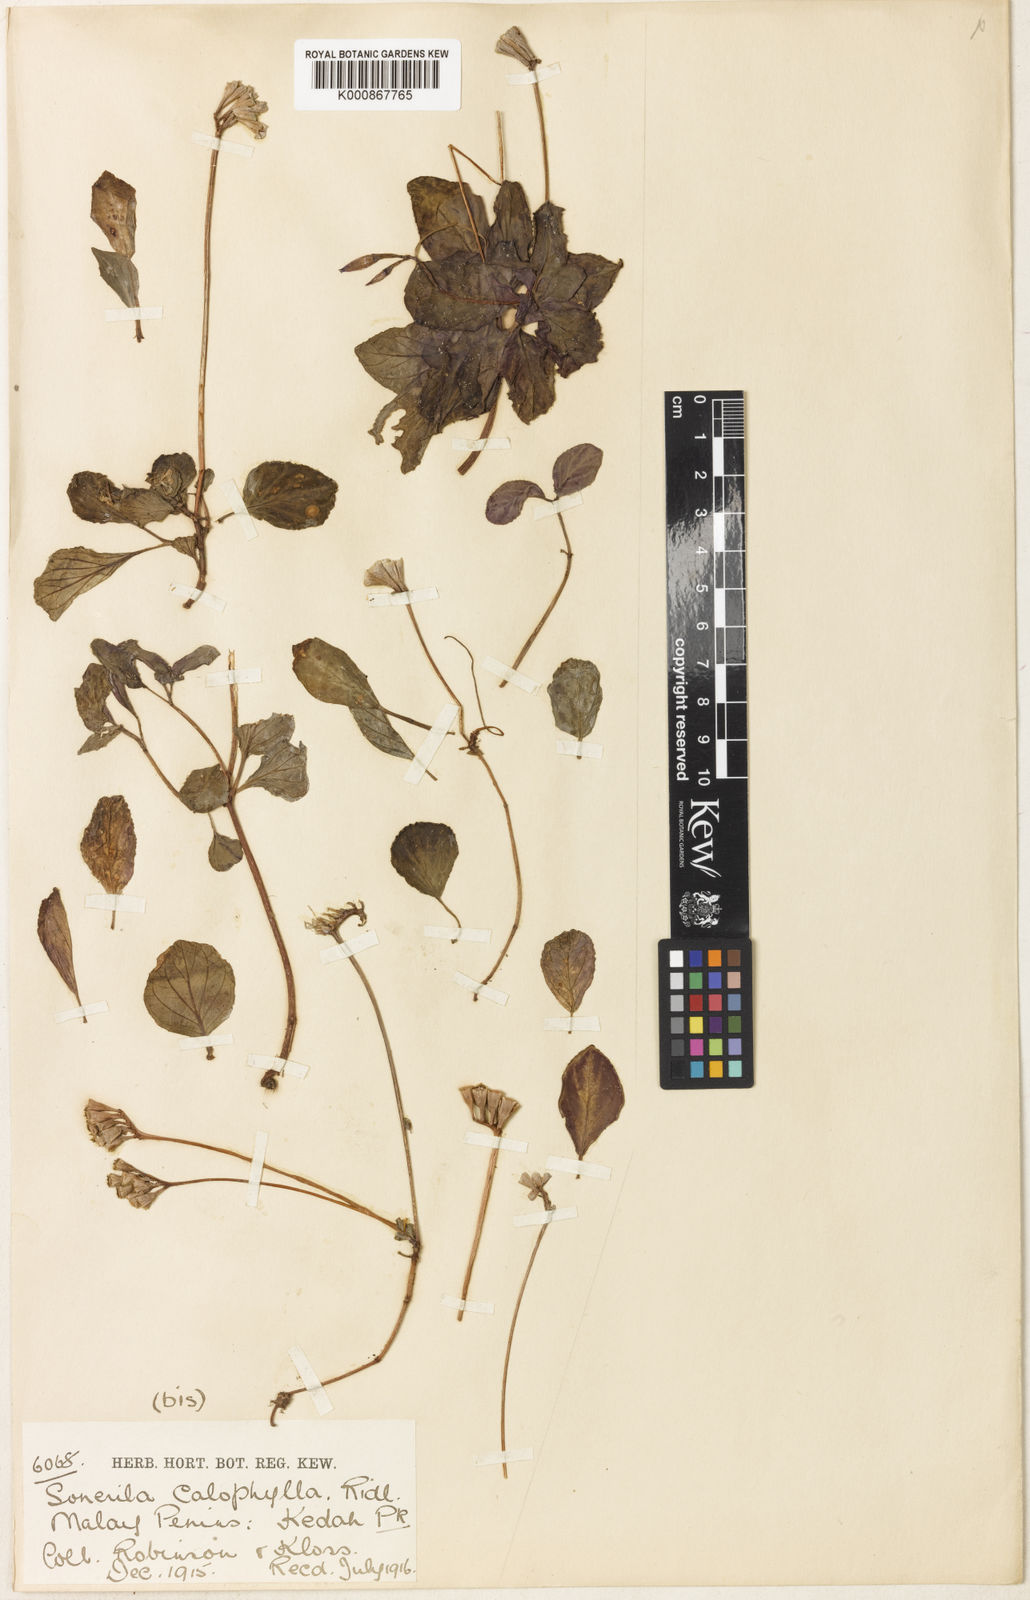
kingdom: Plantae
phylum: Tracheophyta
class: Magnoliopsida
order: Myrtales
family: Melastomataceae
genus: Sonerila
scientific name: Sonerila calophylla
